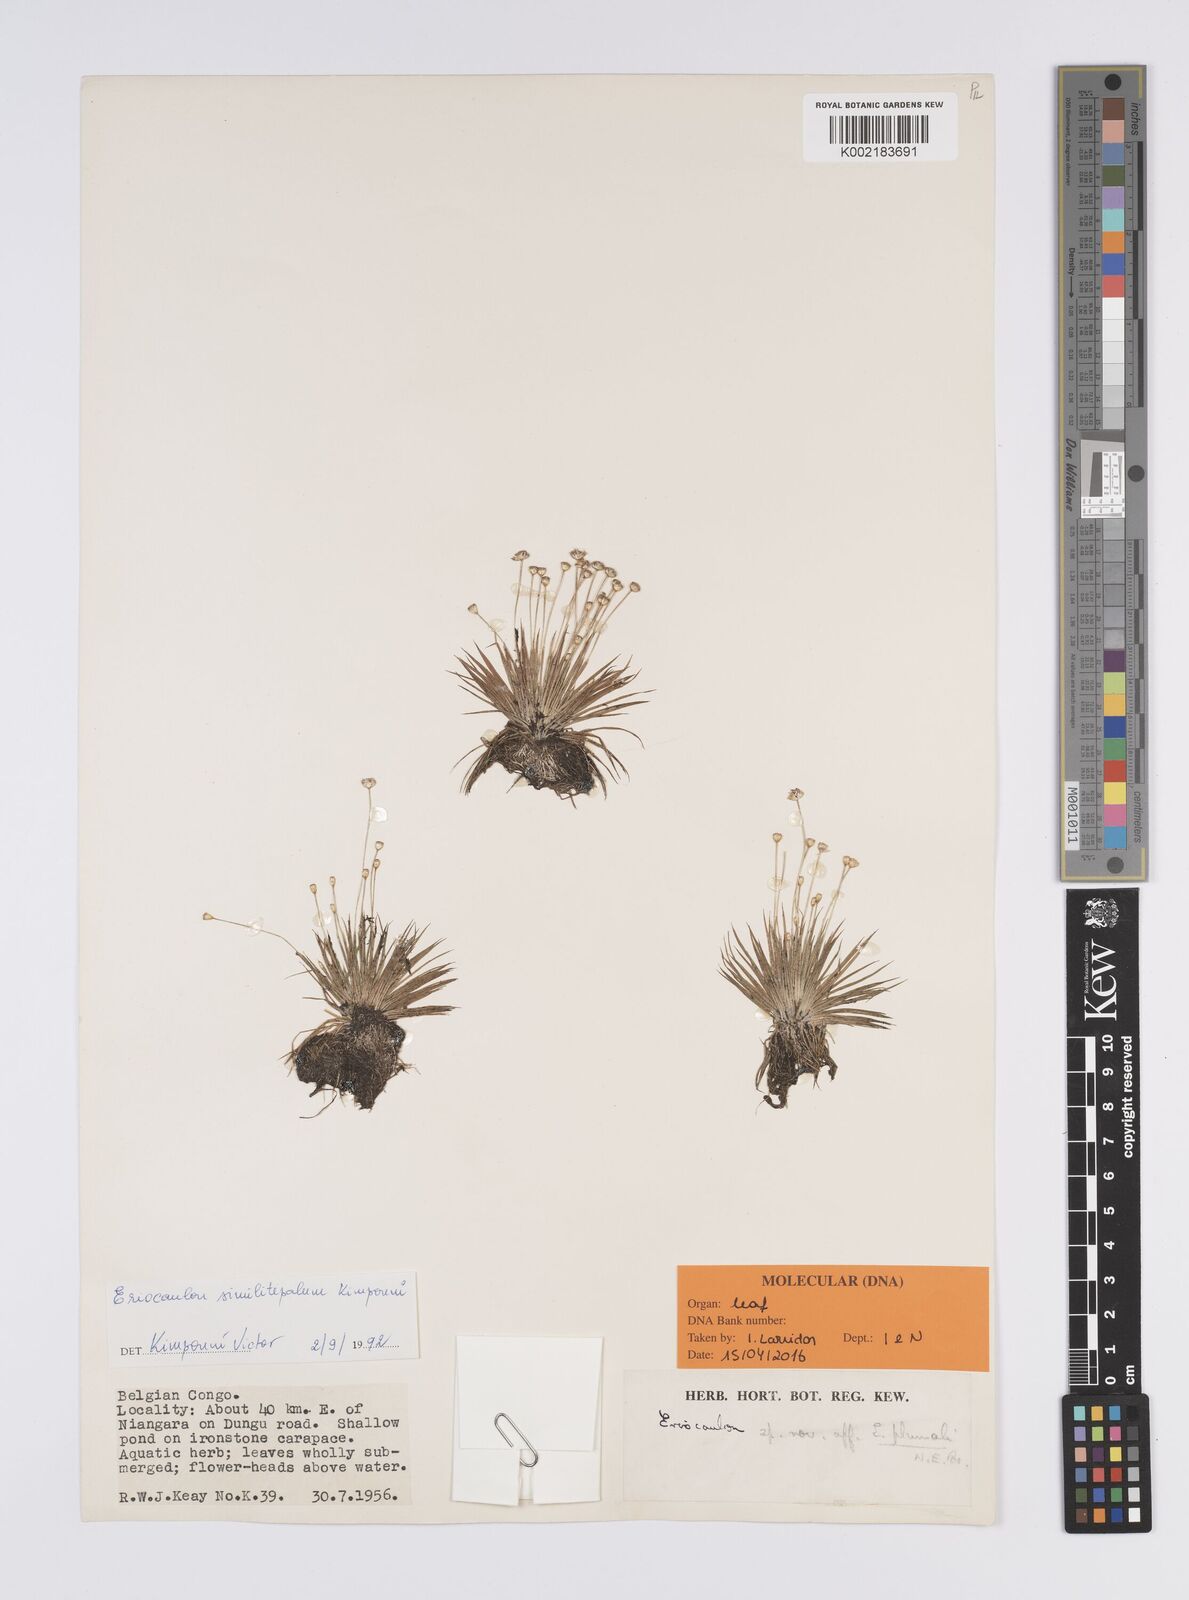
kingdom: Plantae
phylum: Tracheophyta
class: Liliopsida
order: Poales
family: Eriocaulaceae
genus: Eriocaulon
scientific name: Eriocaulon similitepalum
